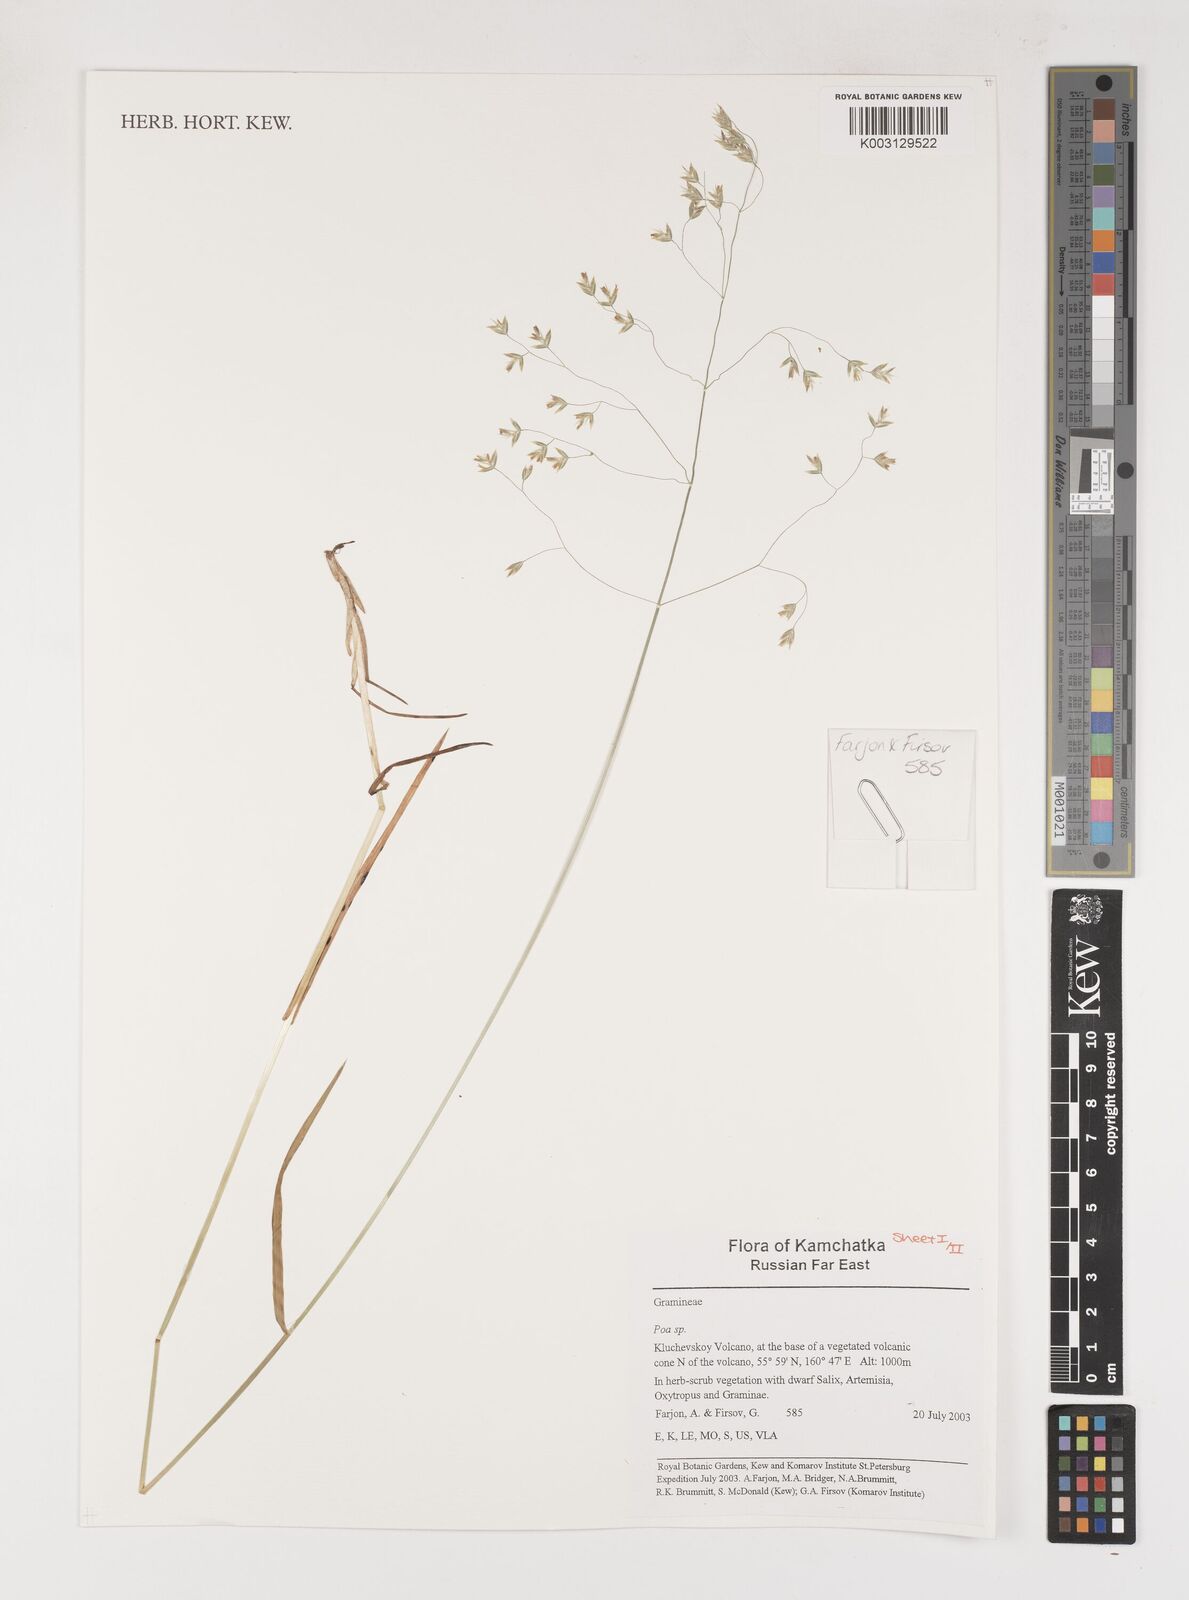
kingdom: Plantae
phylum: Tracheophyta
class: Liliopsida
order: Poales
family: Poaceae
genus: Poa
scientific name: Poa
